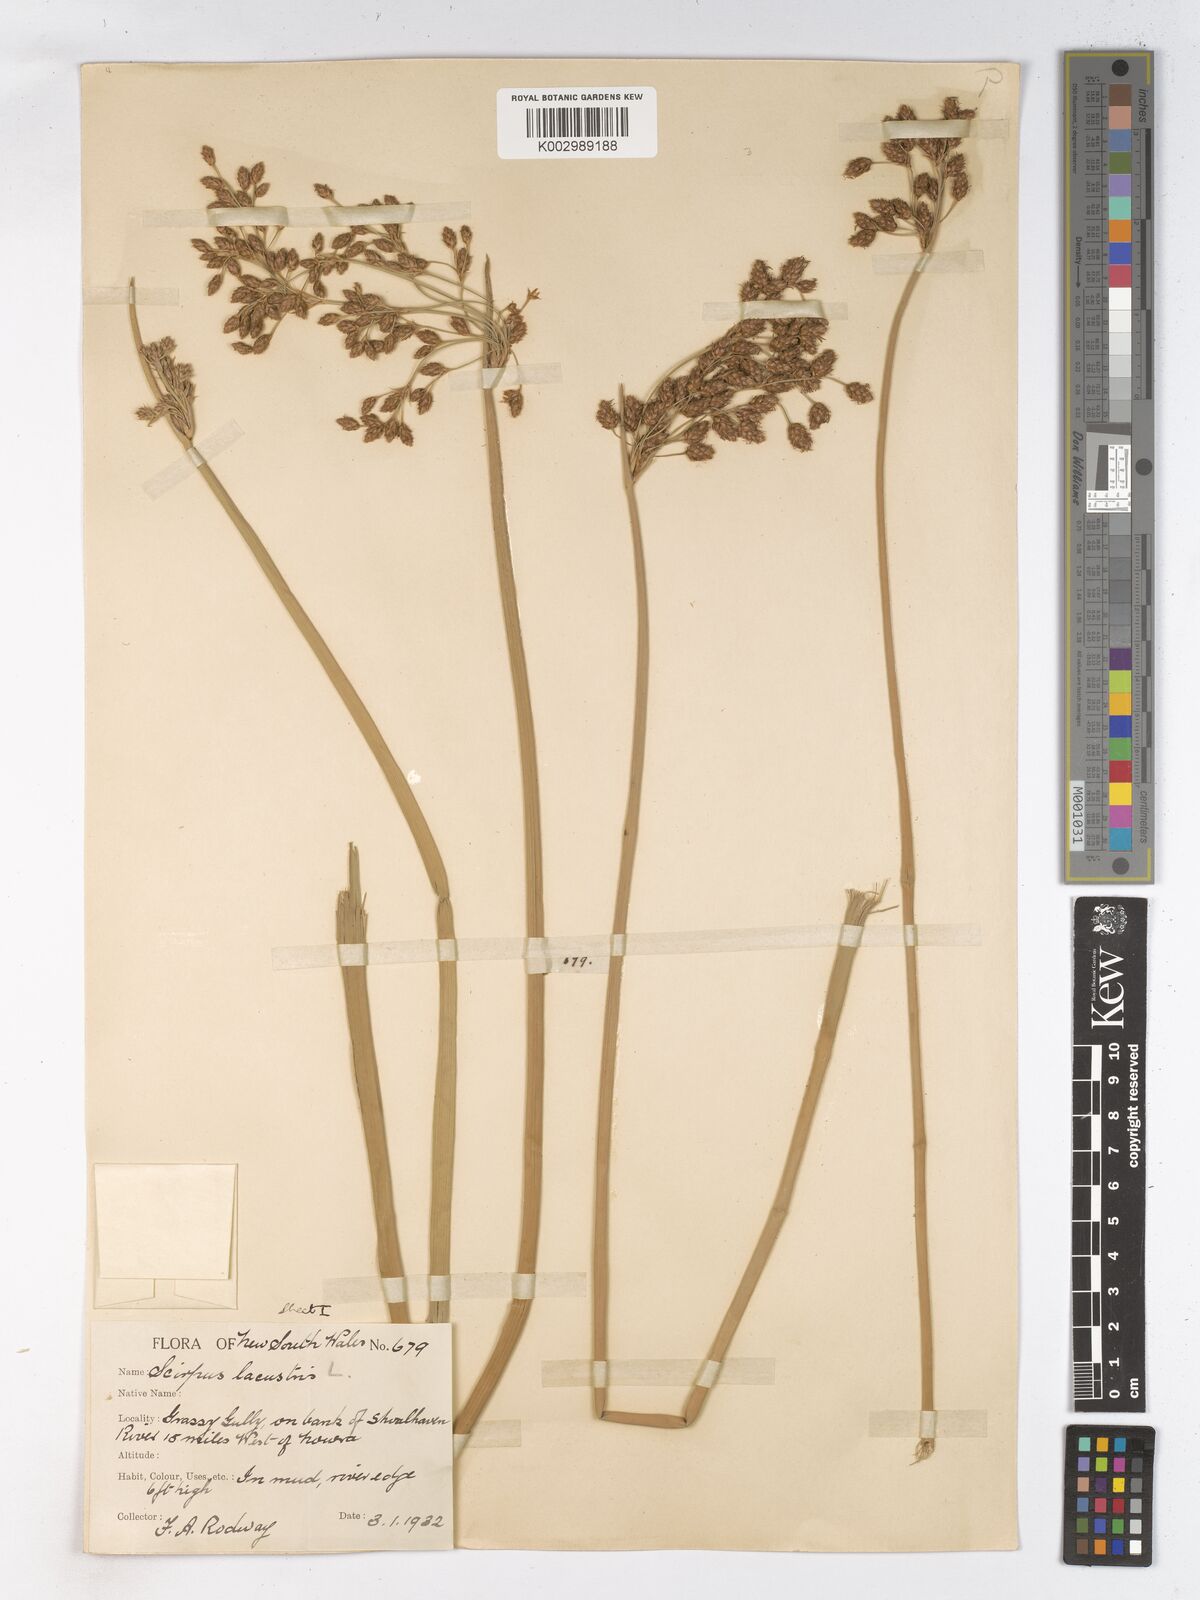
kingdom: Plantae
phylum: Tracheophyta
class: Liliopsida
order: Poales
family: Cyperaceae
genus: Schoenoplectus
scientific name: Schoenoplectus lacustris
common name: Common club-rush
